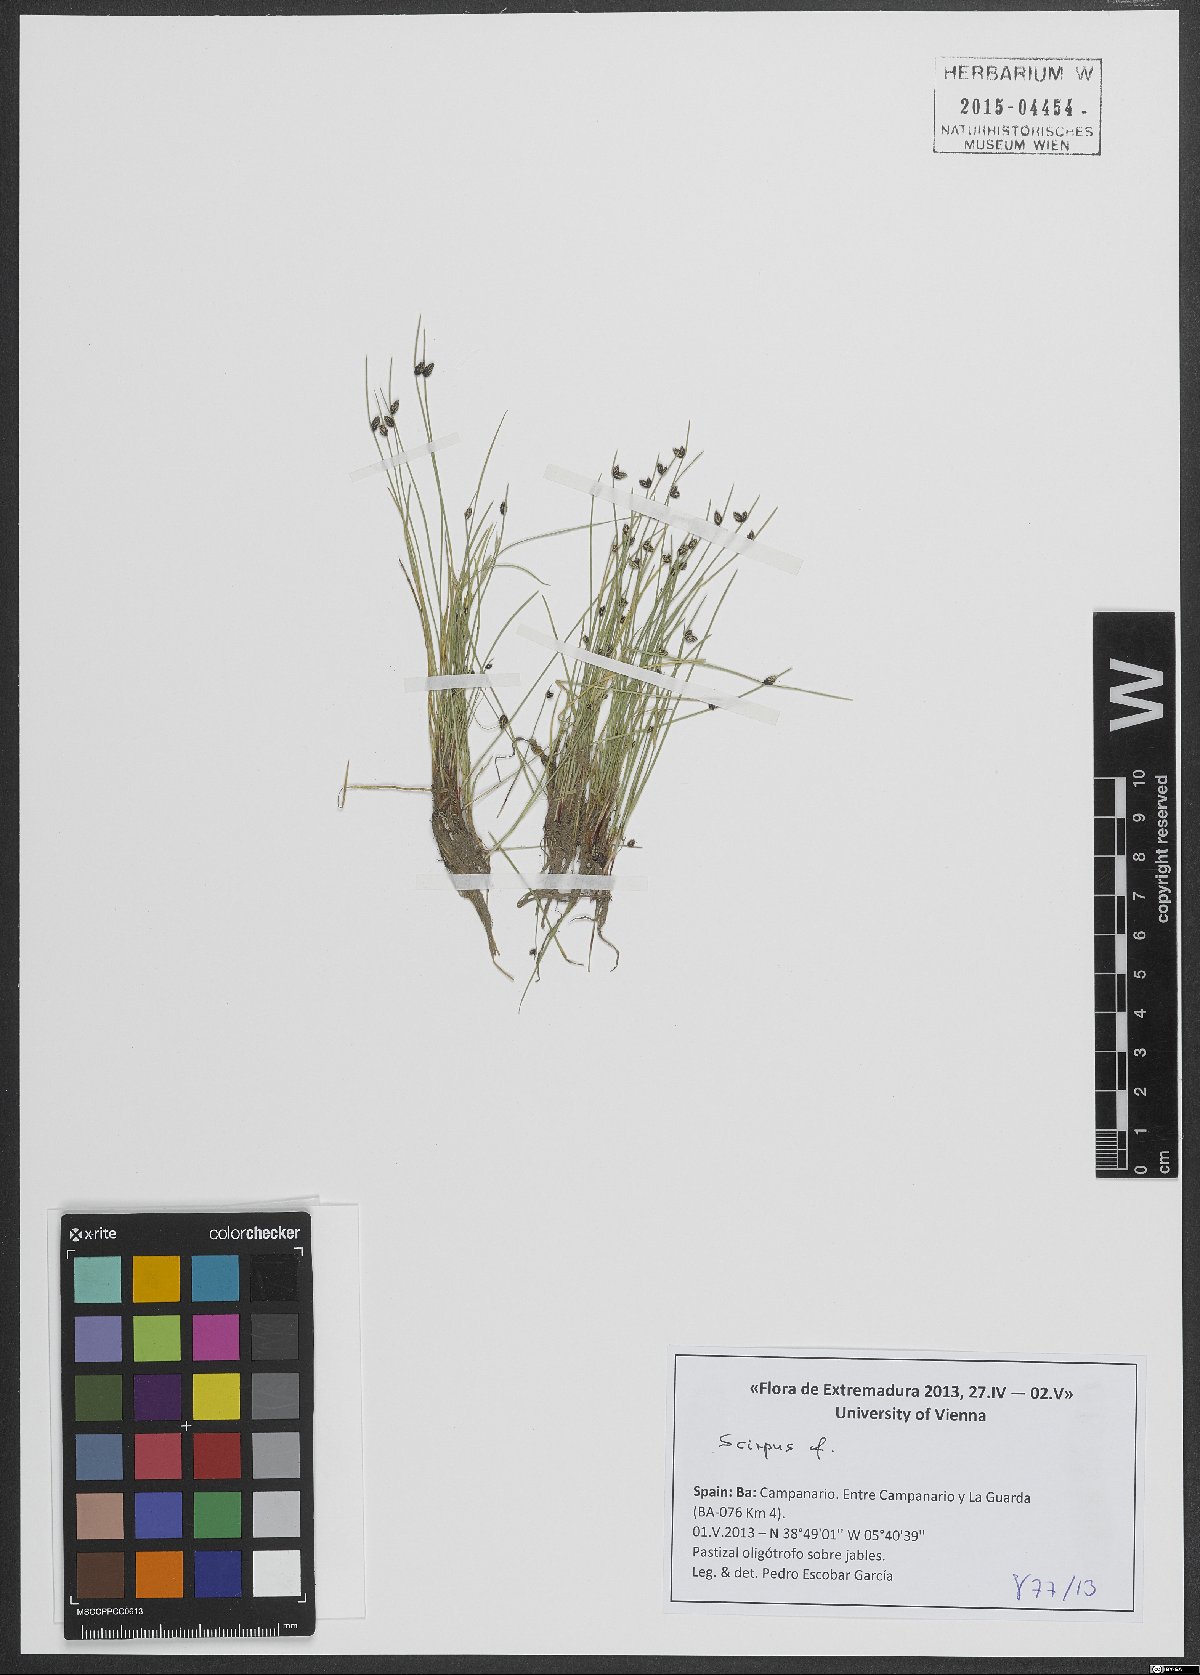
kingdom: Plantae
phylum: Tracheophyta
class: Liliopsida
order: Poales
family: Cyperaceae
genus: Isolepis
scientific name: Isolepis
